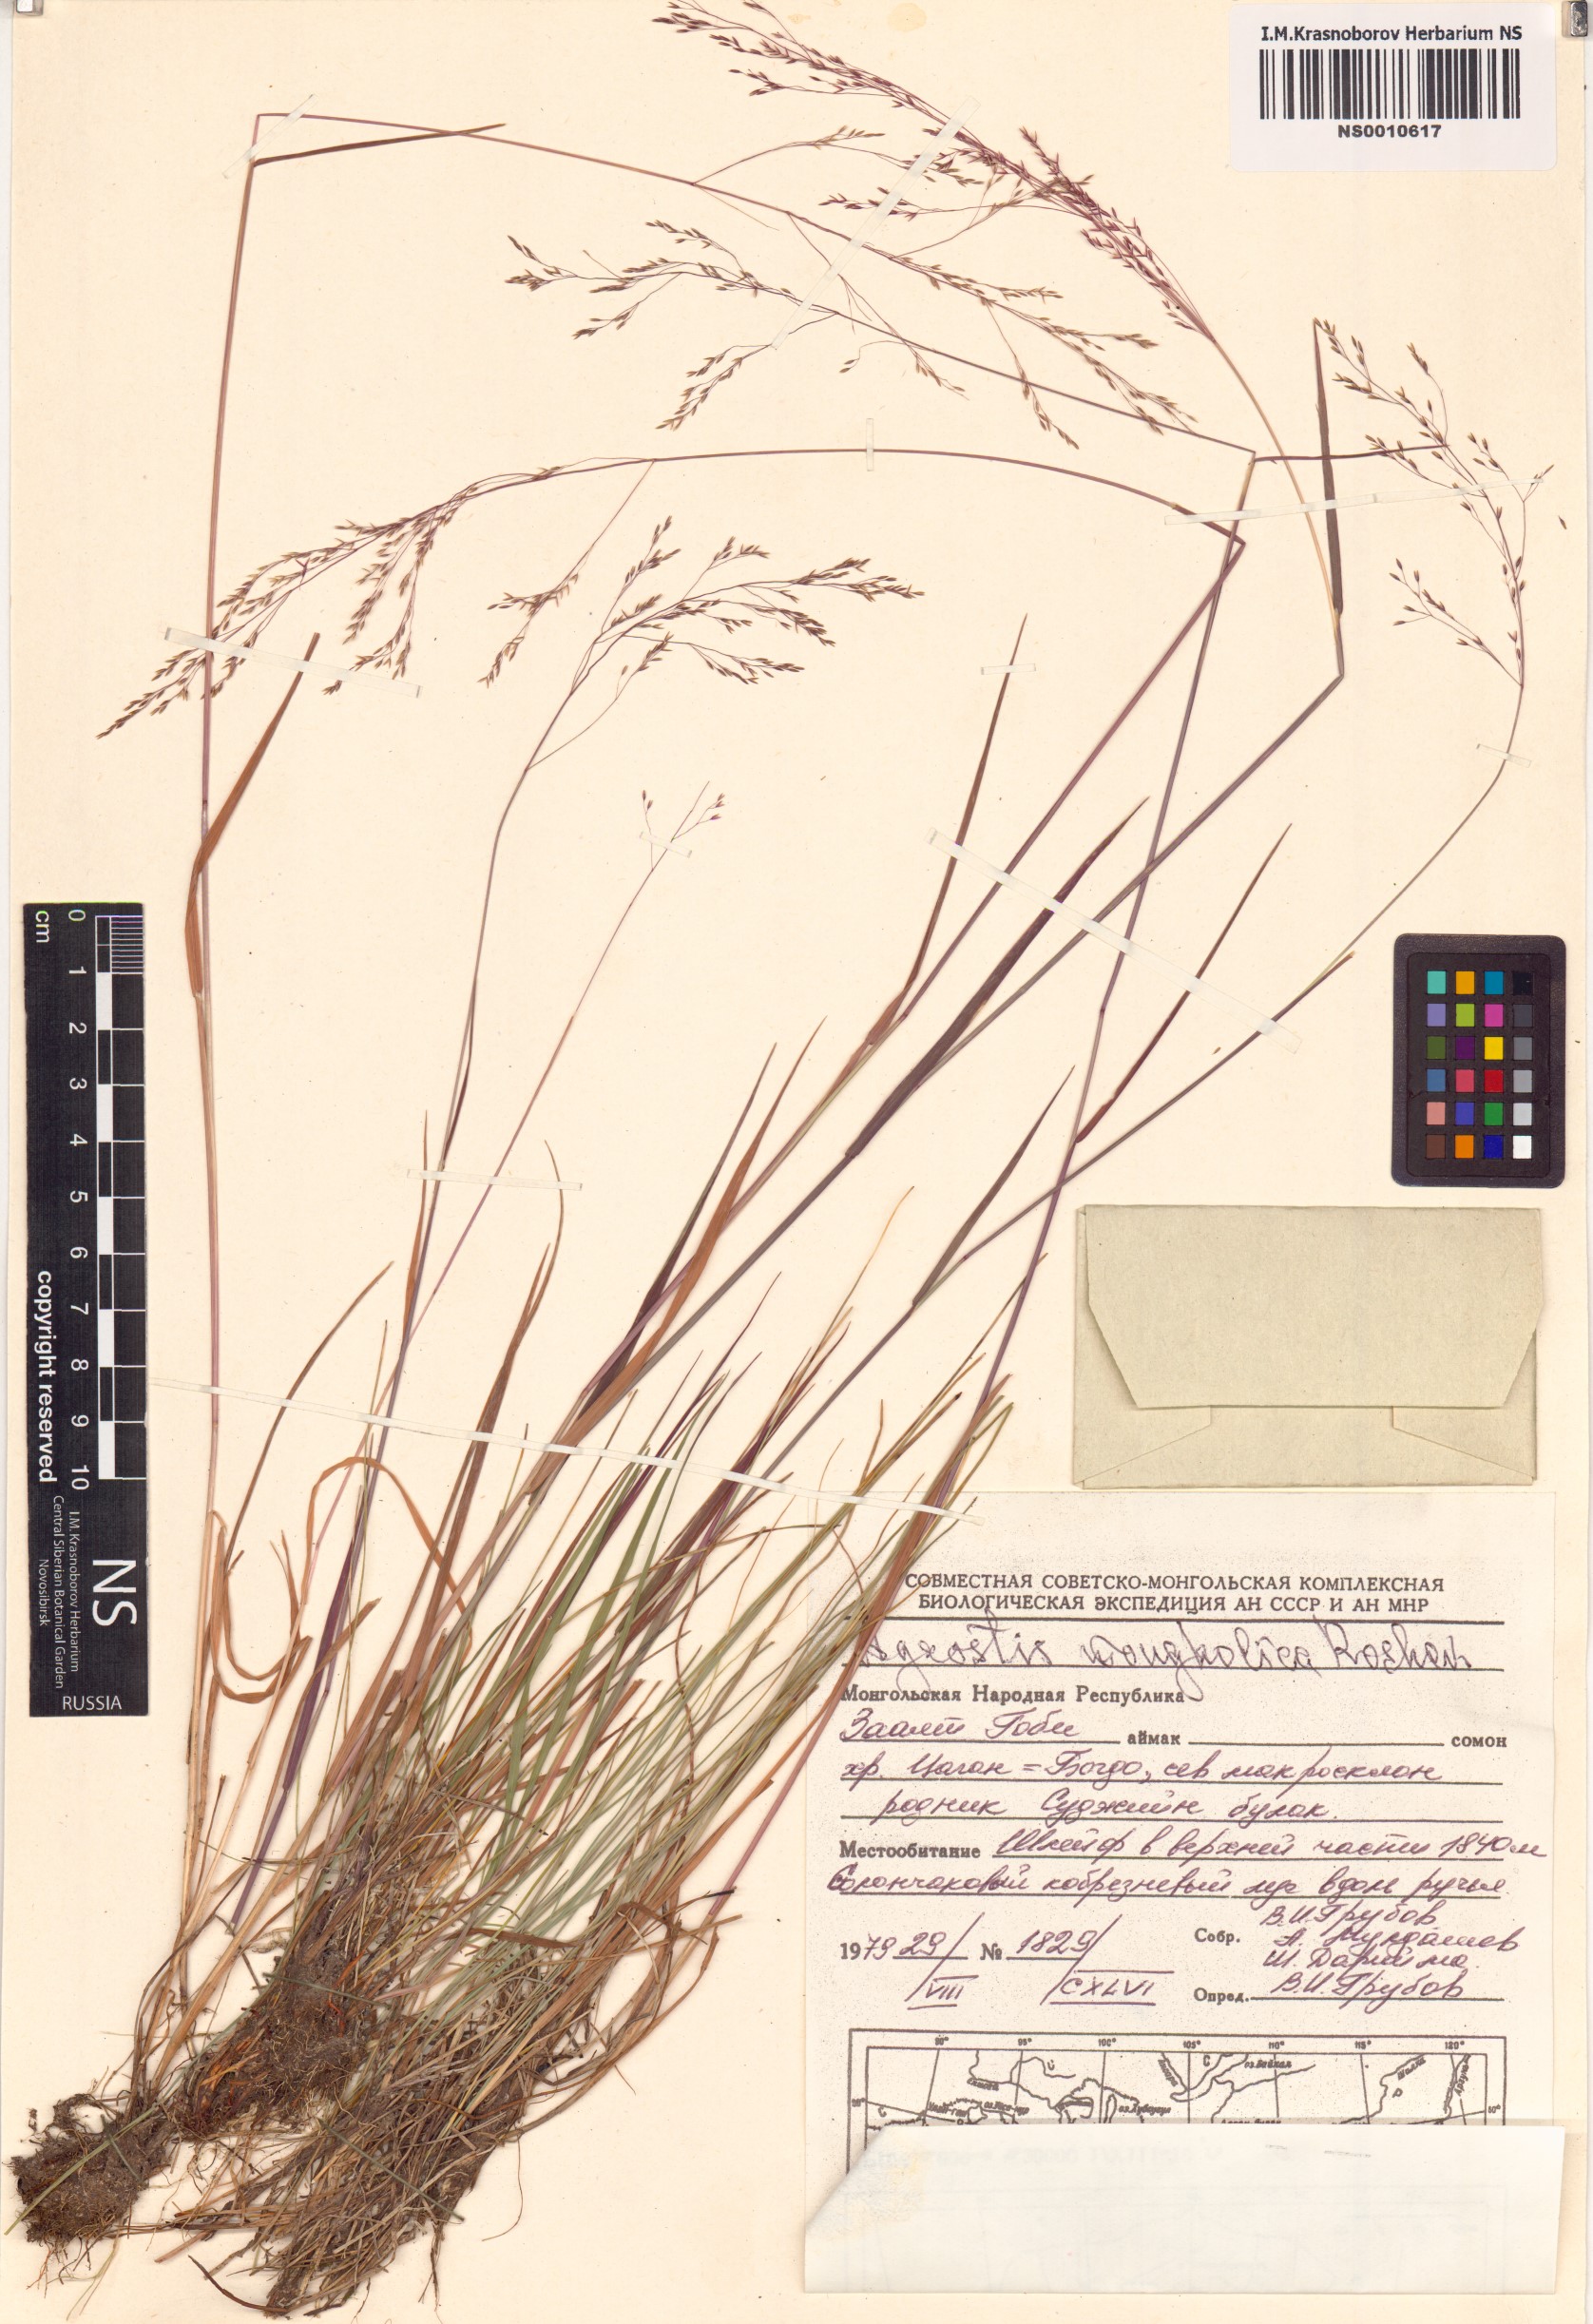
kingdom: Plantae
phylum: Tracheophyta
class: Liliopsida
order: Poales
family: Poaceae
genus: Agrostis
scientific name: Agrostis divaricatissima
